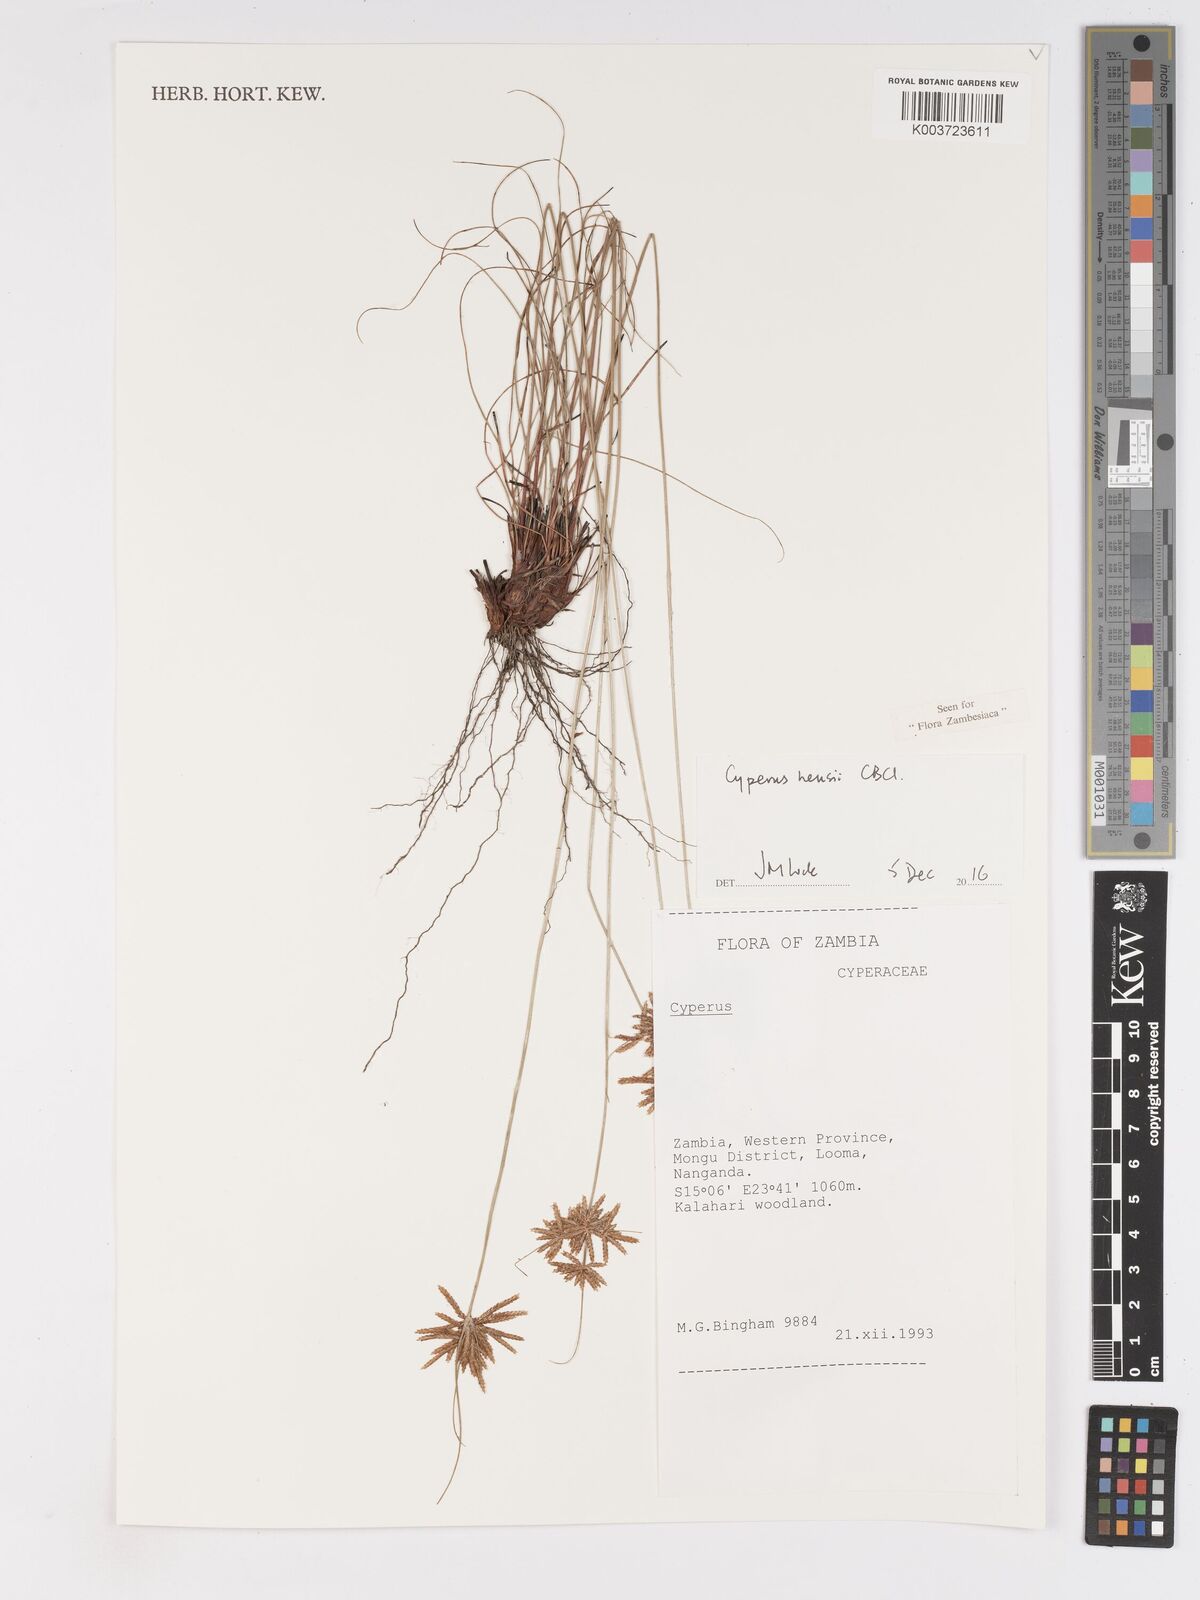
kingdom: Plantae
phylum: Tracheophyta
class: Liliopsida
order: Poales
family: Cyperaceae
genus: Cyperus
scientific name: Cyperus hensii
